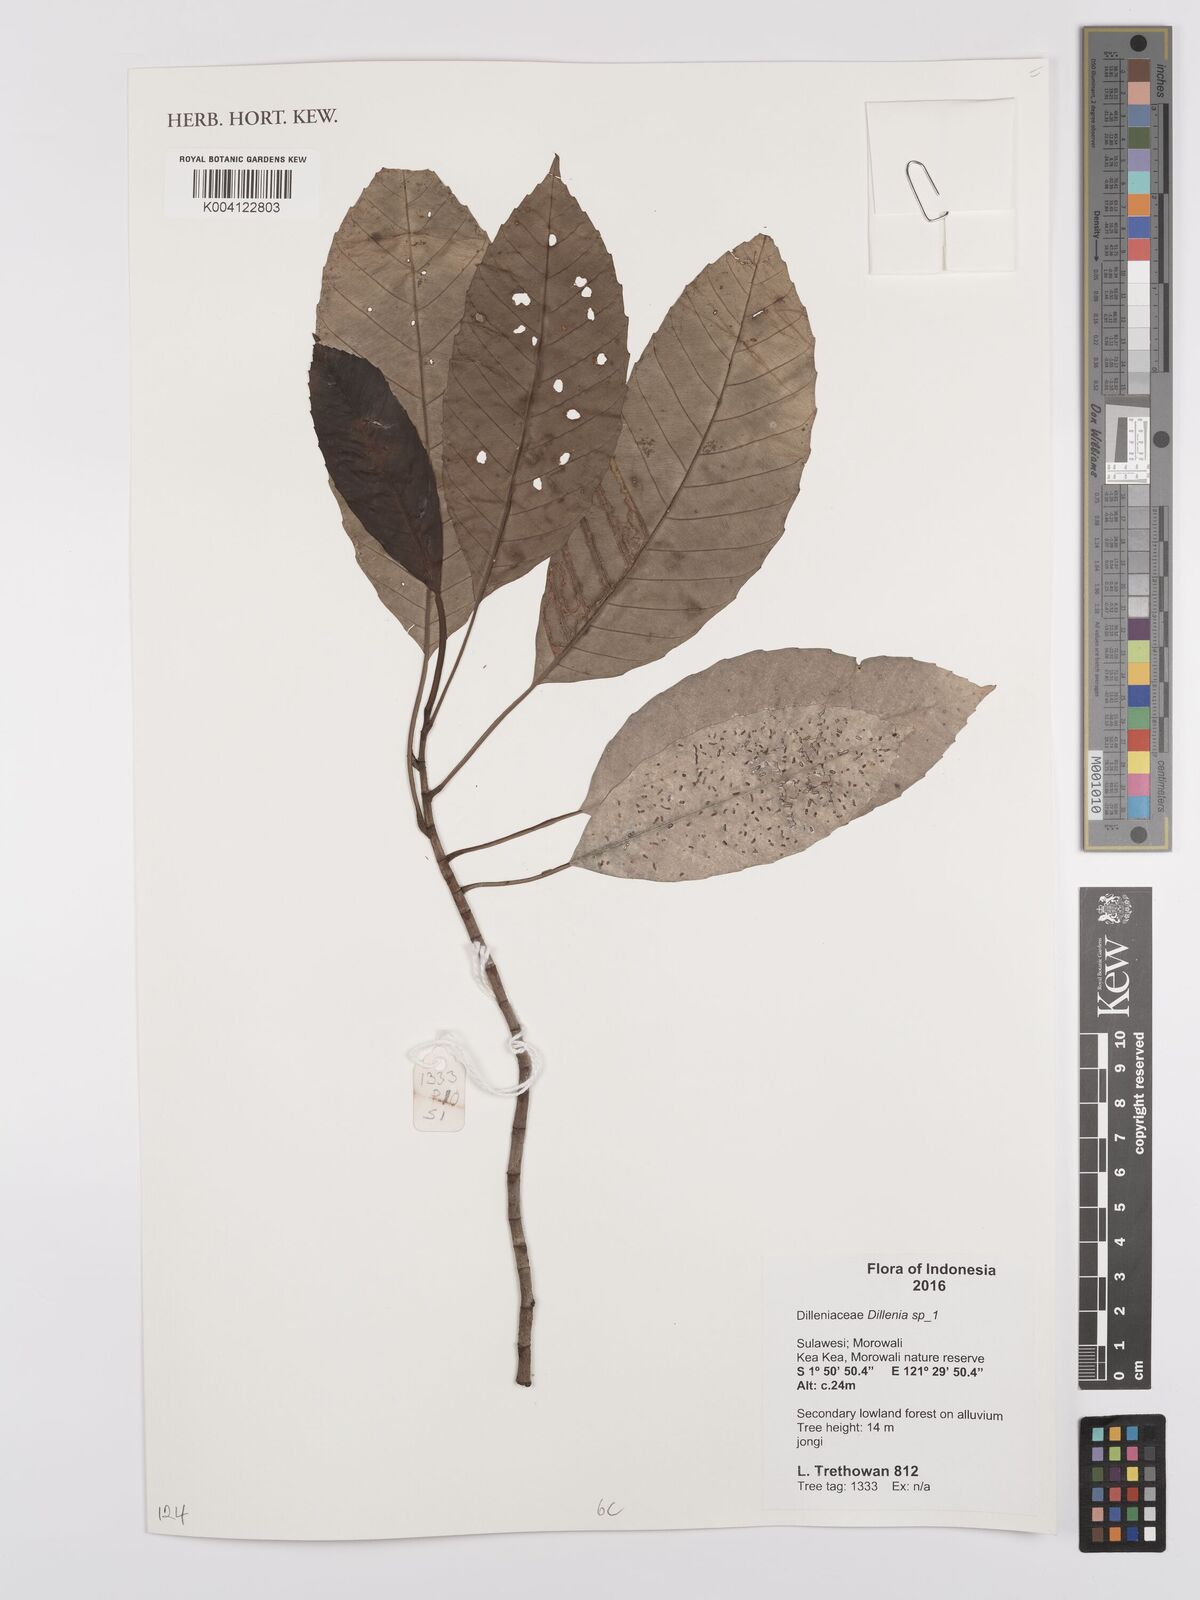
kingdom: Plantae
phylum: Tracheophyta
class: Magnoliopsida
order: Dilleniales
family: Dilleniaceae
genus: Dillenia
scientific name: Dillenia
